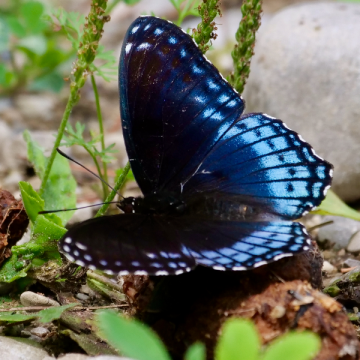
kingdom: Animalia
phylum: Arthropoda
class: Insecta
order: Lepidoptera
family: Nymphalidae
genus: Limenitis
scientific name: Limenitis arthemis
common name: Red-spotted Admiral
